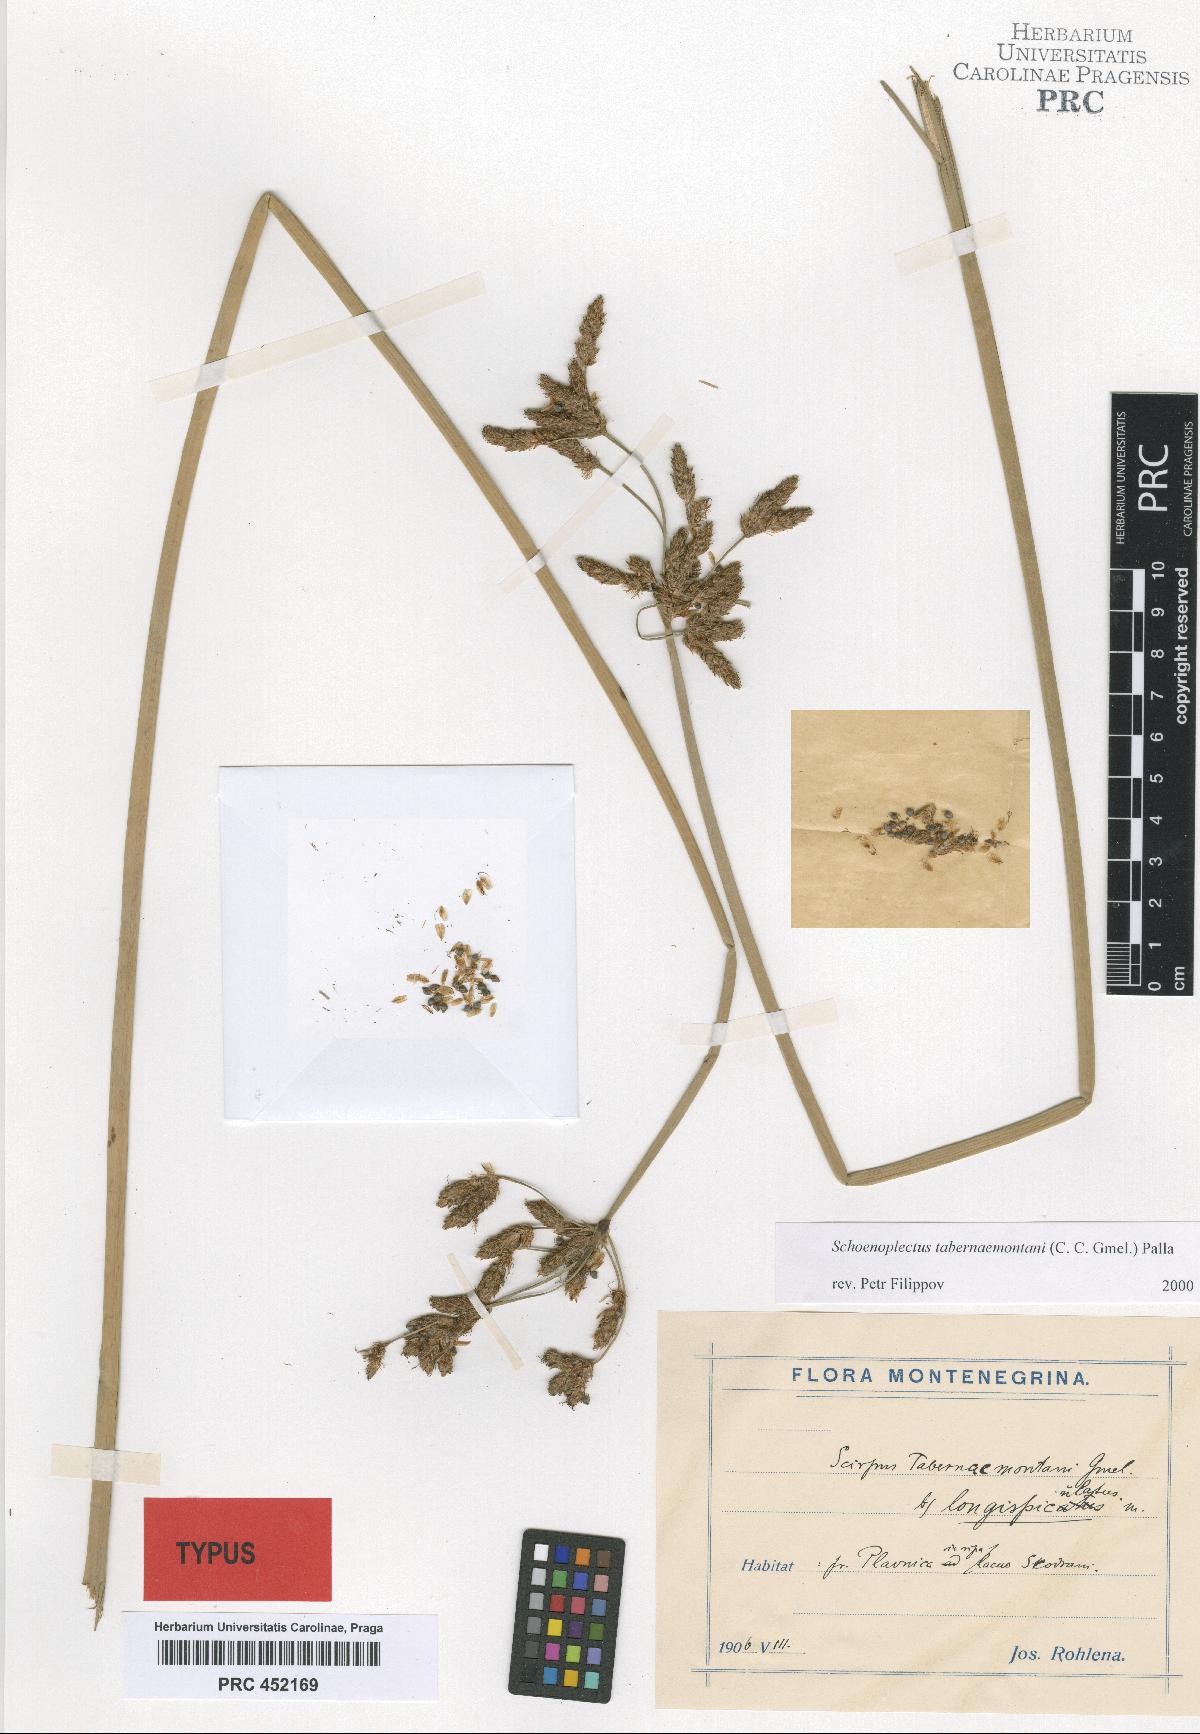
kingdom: Plantae
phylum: Tracheophyta
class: Liliopsida
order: Poales
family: Cyperaceae
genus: Schoenoplectus
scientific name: Schoenoplectus
